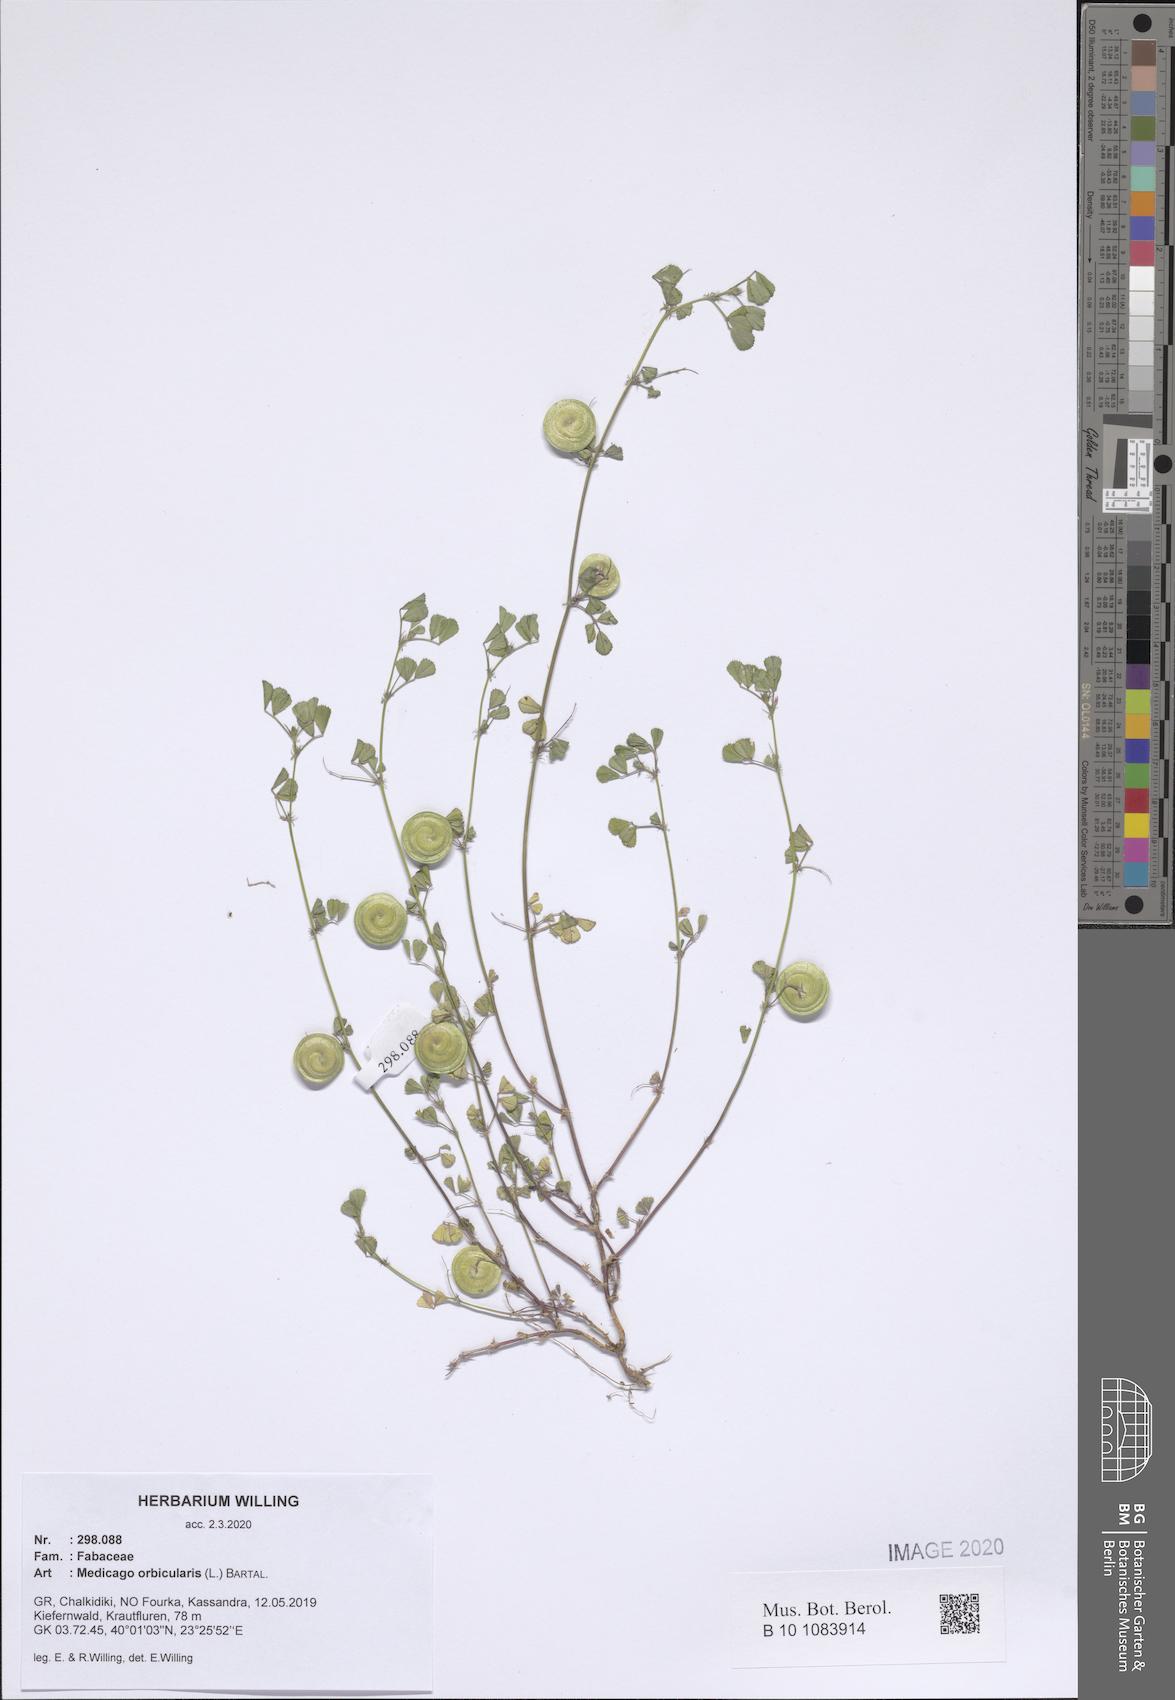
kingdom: Plantae
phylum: Tracheophyta
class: Magnoliopsida
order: Fabales
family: Fabaceae
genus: Medicago
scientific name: Medicago orbicularis
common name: Button medick
